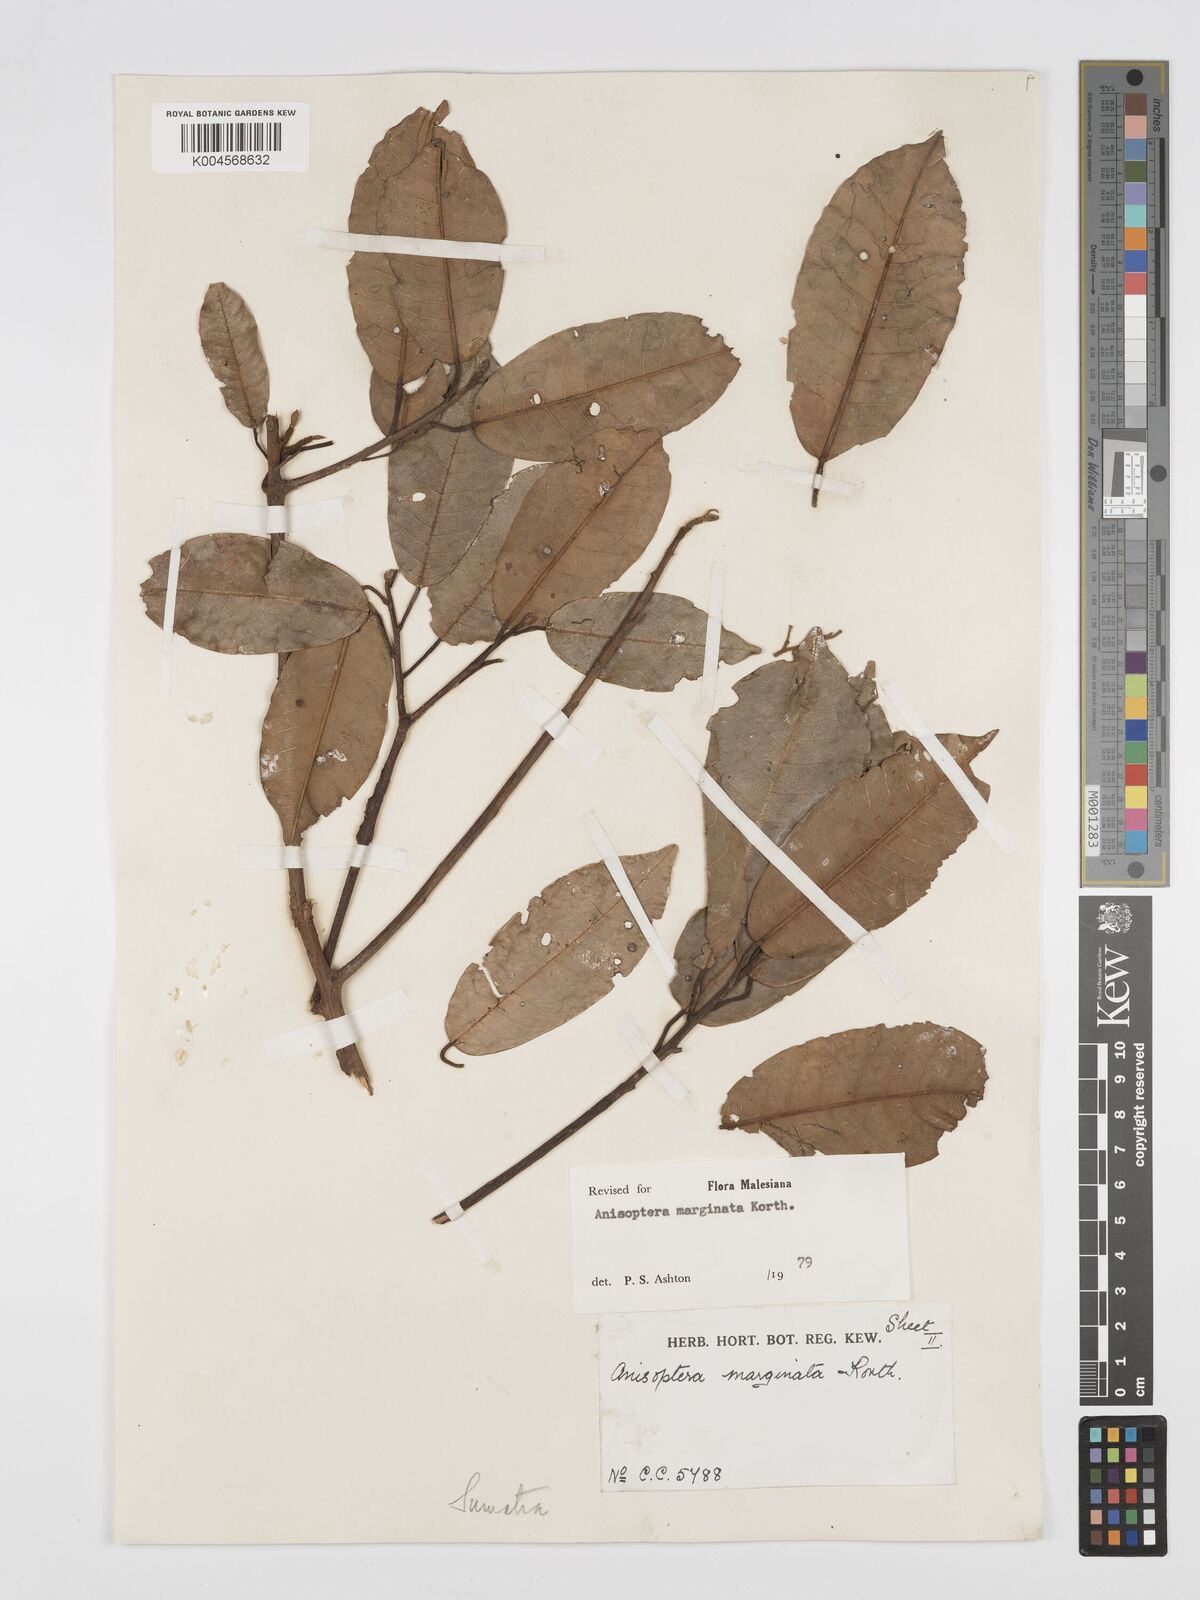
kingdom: Plantae
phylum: Tracheophyta
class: Magnoliopsida
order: Malvales
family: Dipterocarpaceae
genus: Anisoptera
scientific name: Anisoptera marginata
